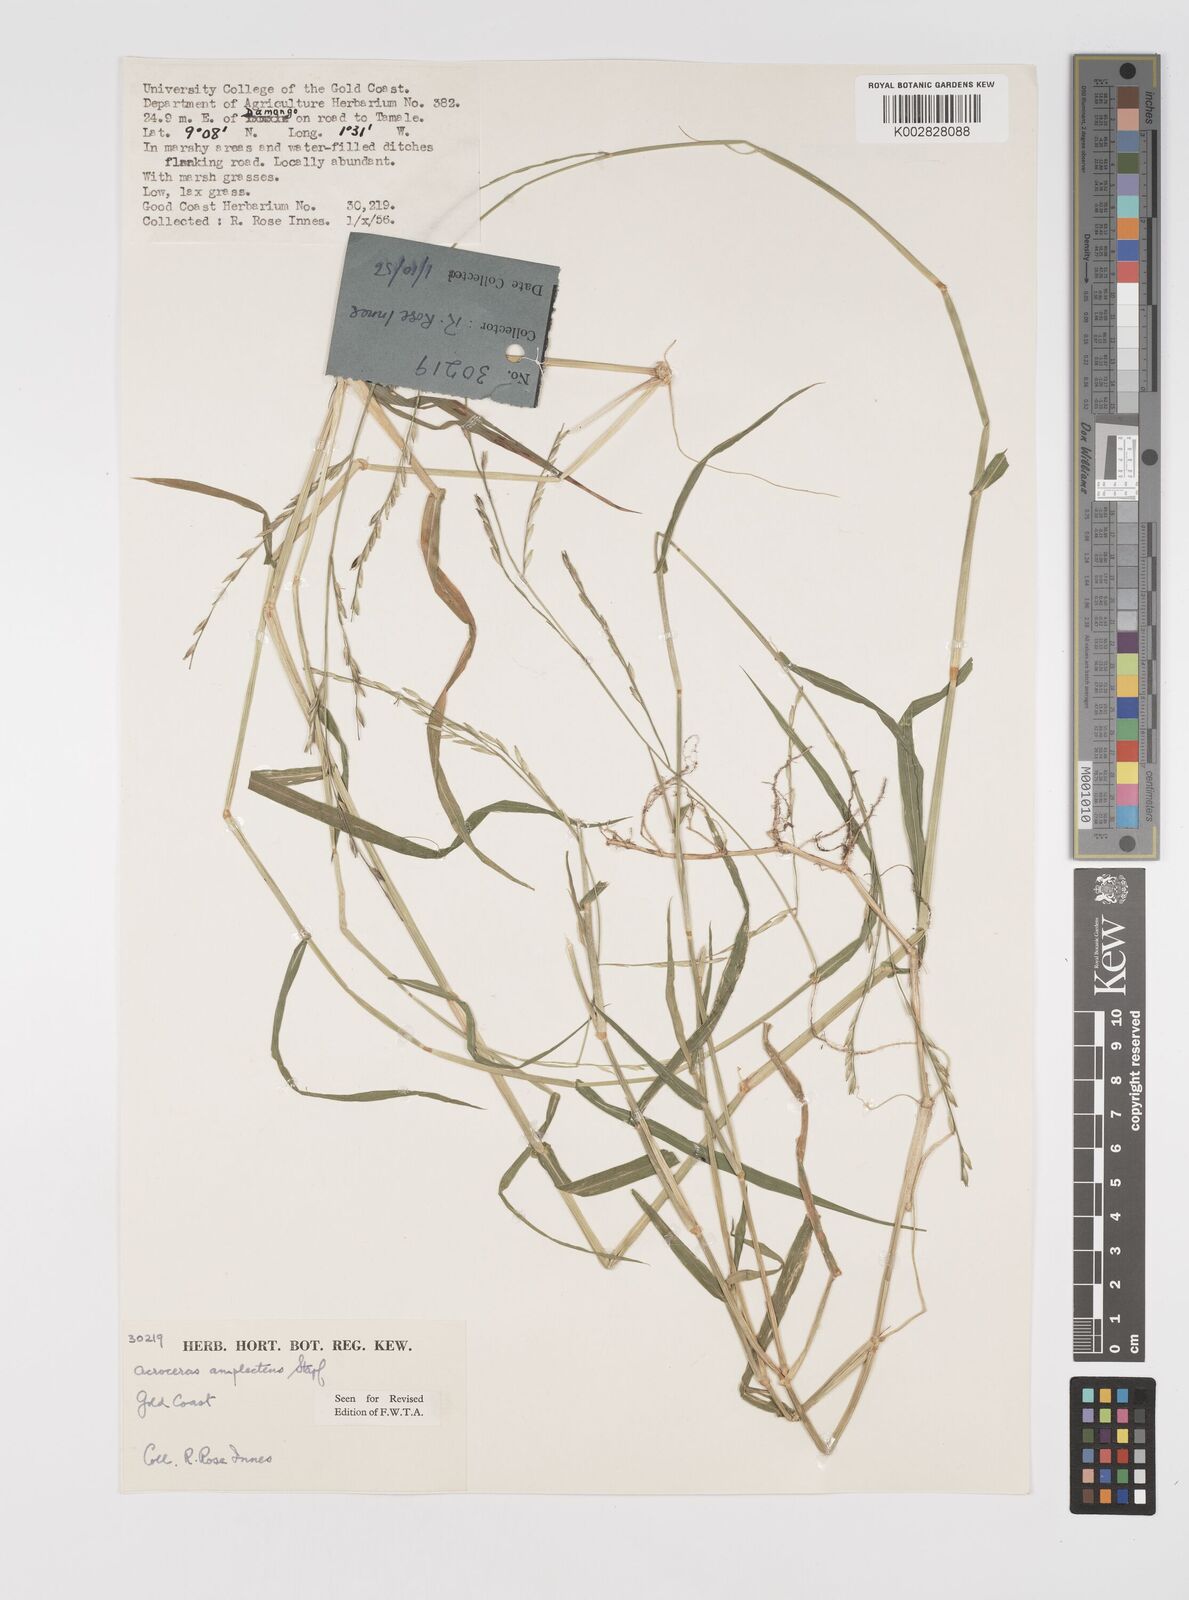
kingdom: Plantae
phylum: Tracheophyta
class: Liliopsida
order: Poales
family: Poaceae
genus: Acroceras
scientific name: Acroceras amplectens
